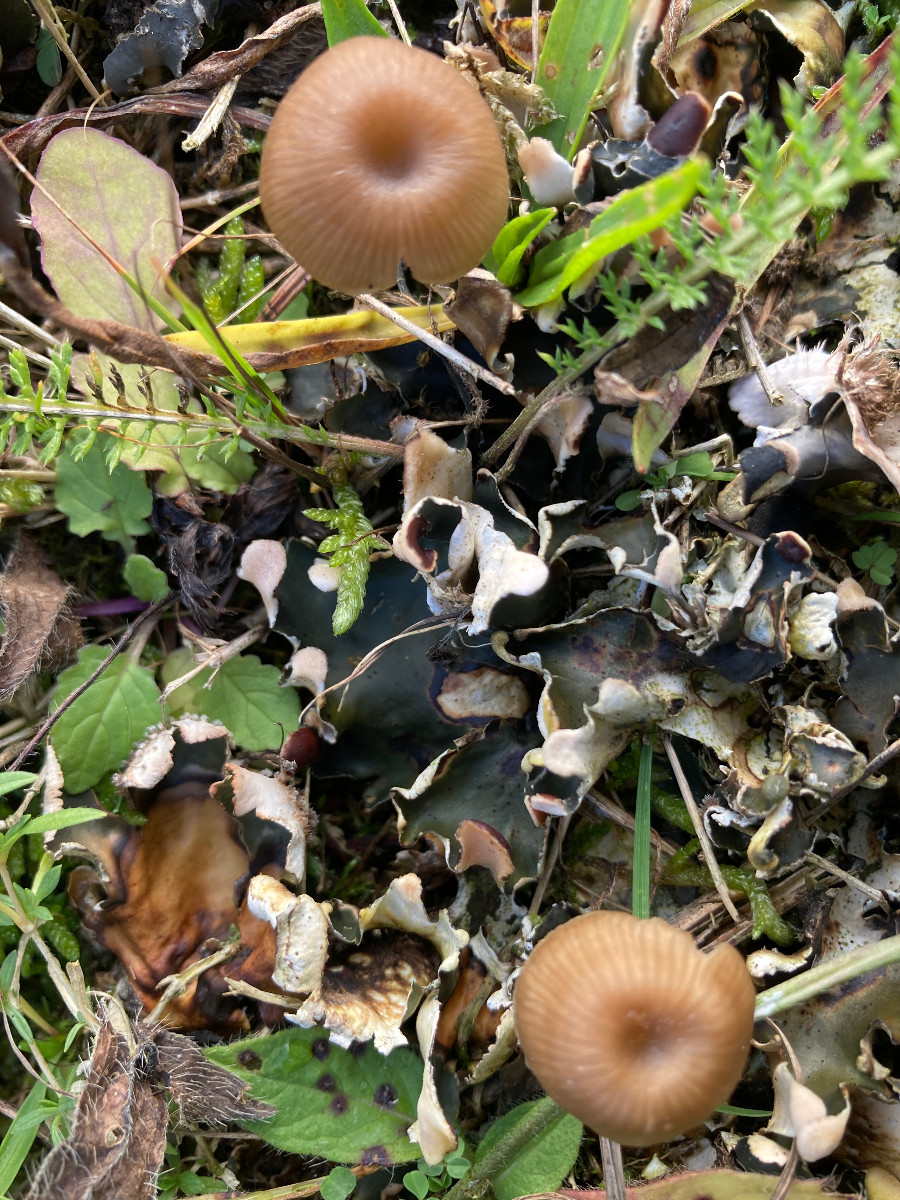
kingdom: Fungi
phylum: Basidiomycota
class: Agaricomycetes
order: Agaricales
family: Tricholomataceae
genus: Gamundia
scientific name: Gamundia xerophila
